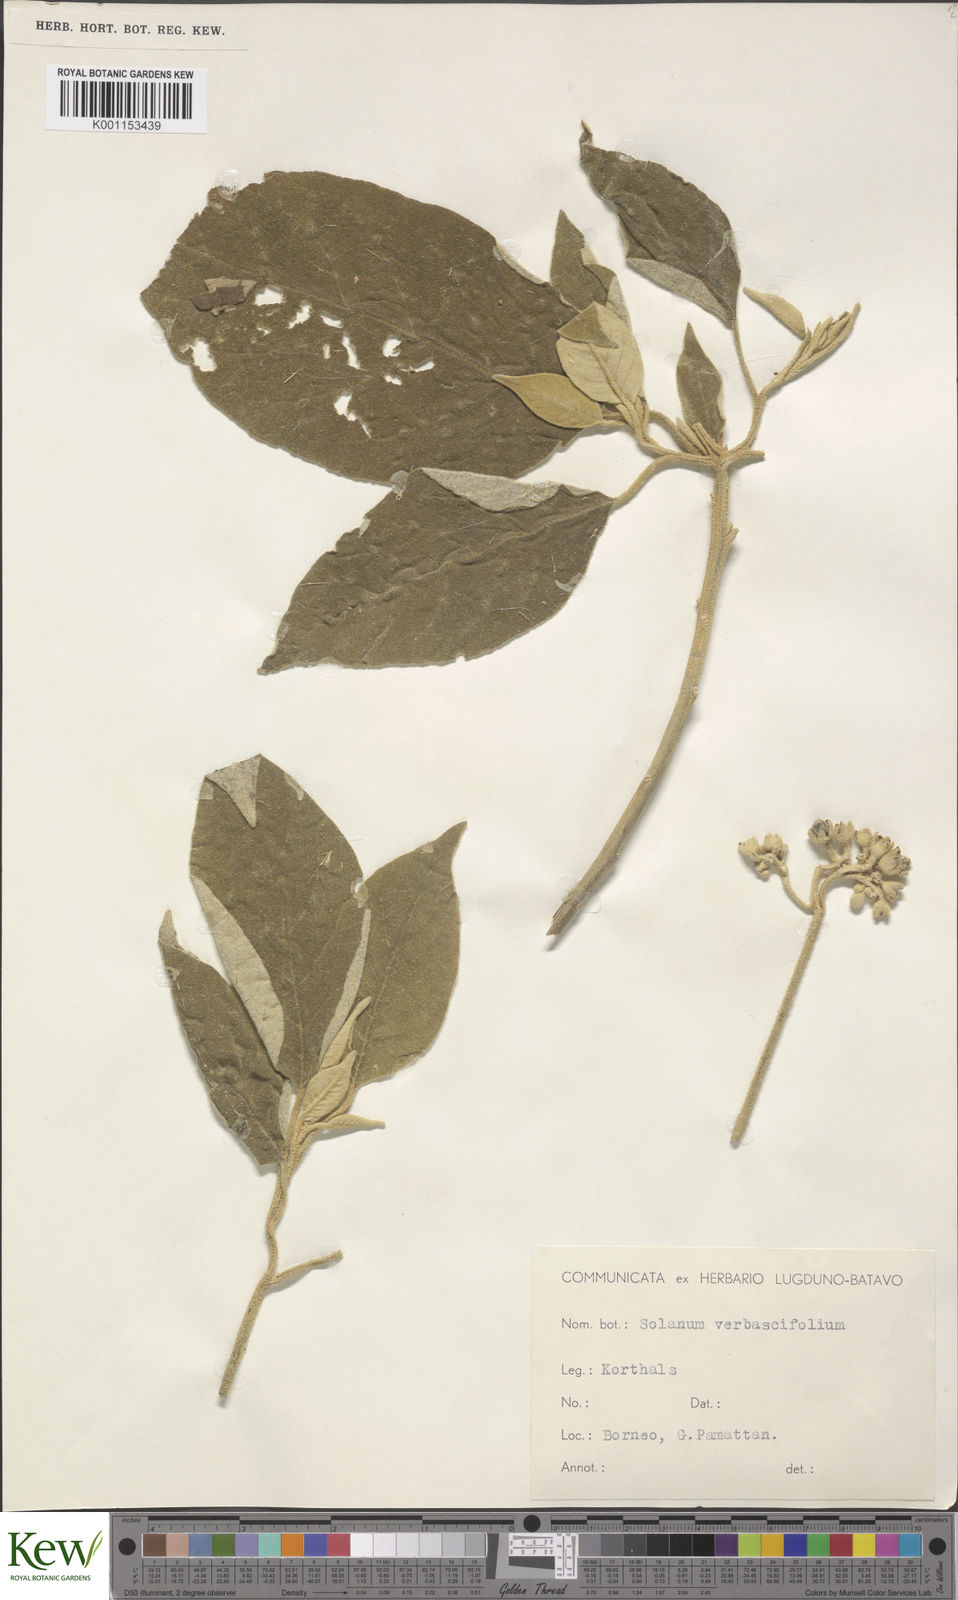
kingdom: Plantae
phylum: Tracheophyta
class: Magnoliopsida
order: Solanales
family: Solanaceae
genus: Solanum
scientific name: Solanum erianthum
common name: Tobacco-tree
